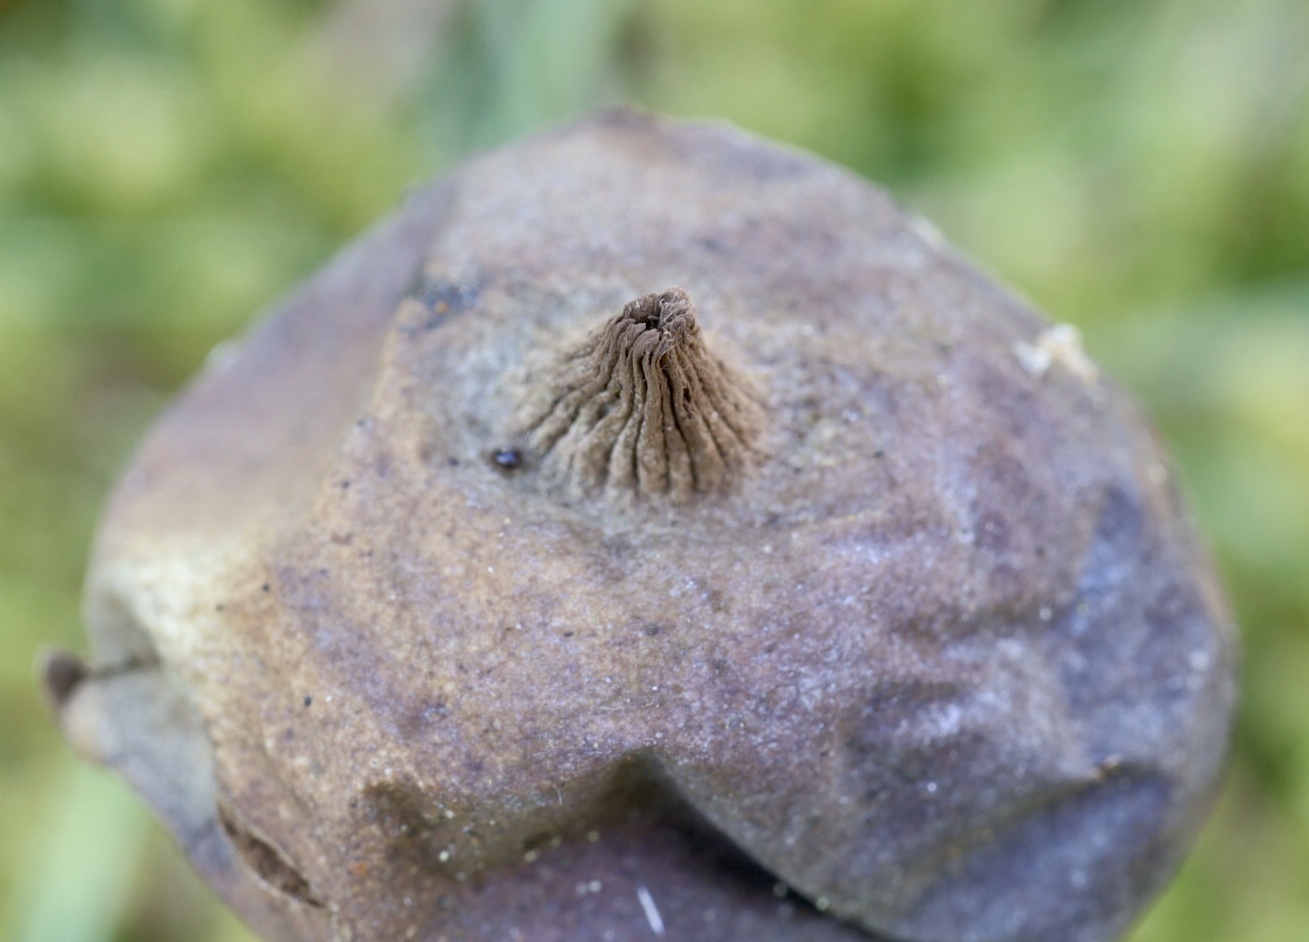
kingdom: Fungi
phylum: Basidiomycota
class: Agaricomycetes
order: Geastrales
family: Geastraceae
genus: Geastrum
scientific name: Geastrum pectinatum
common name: stilket stjernebold
